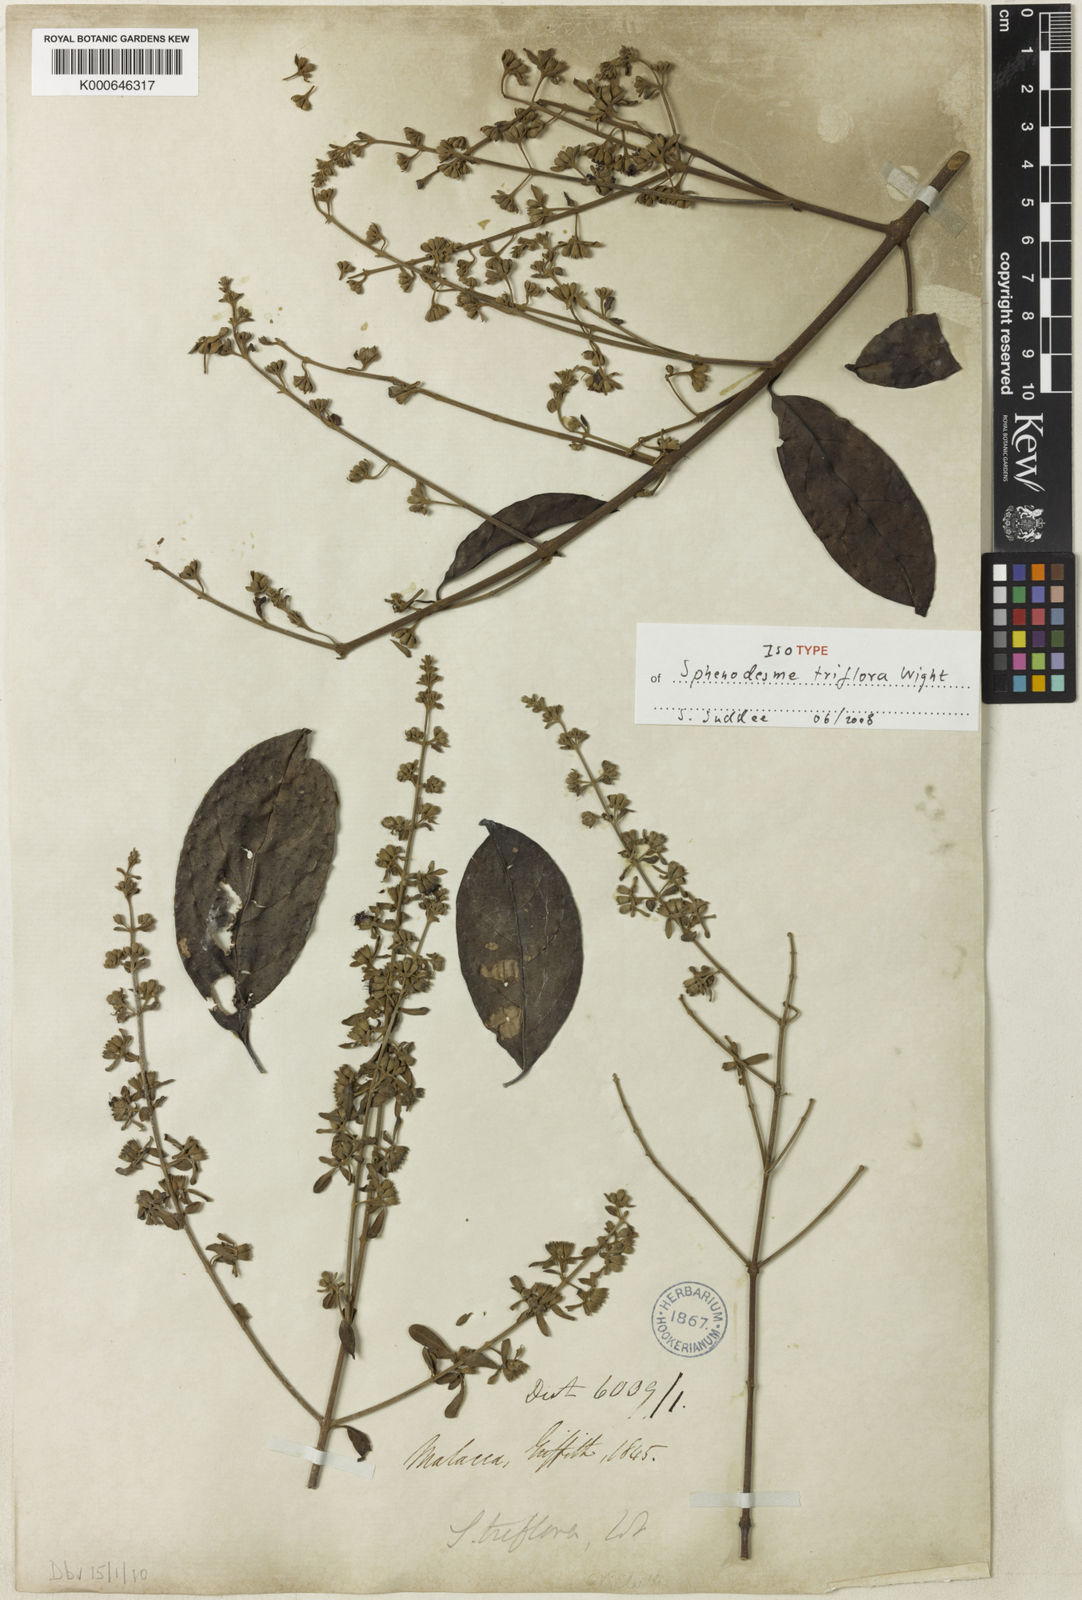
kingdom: Plantae
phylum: Tracheophyta
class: Magnoliopsida
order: Lamiales
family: Lamiaceae
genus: Sphenodesme
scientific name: Sphenodesme triflora
